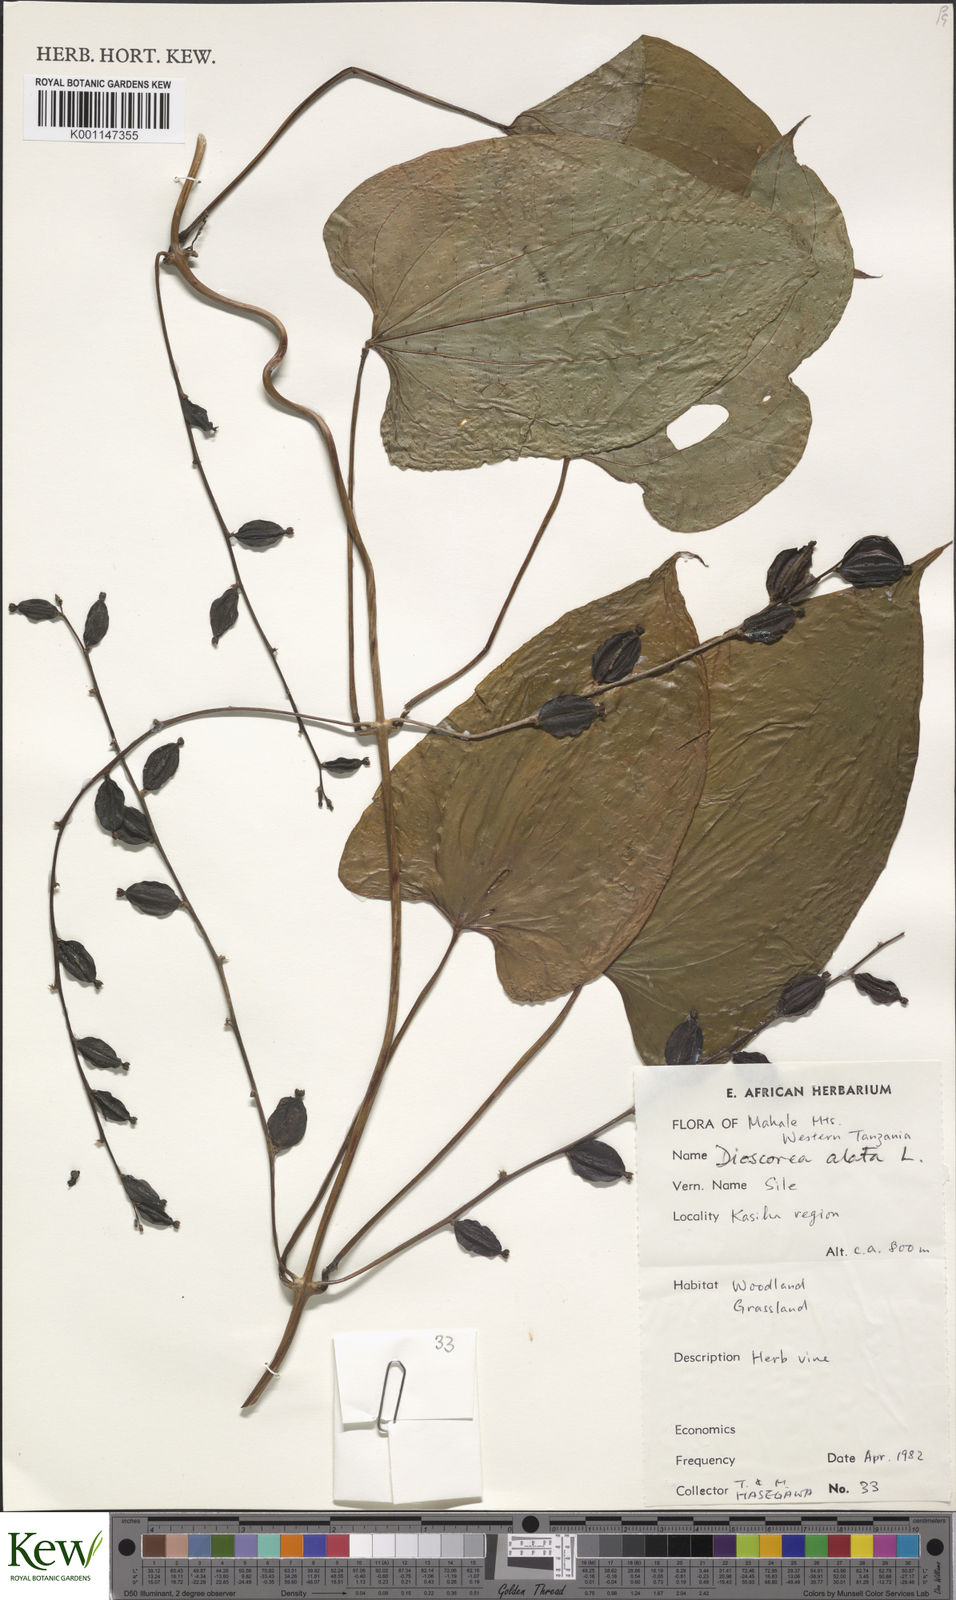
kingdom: Plantae
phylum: Tracheophyta
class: Liliopsida
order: Dioscoreales
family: Dioscoreaceae
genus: Dioscorea
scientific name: Dioscorea alata
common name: Water yam
